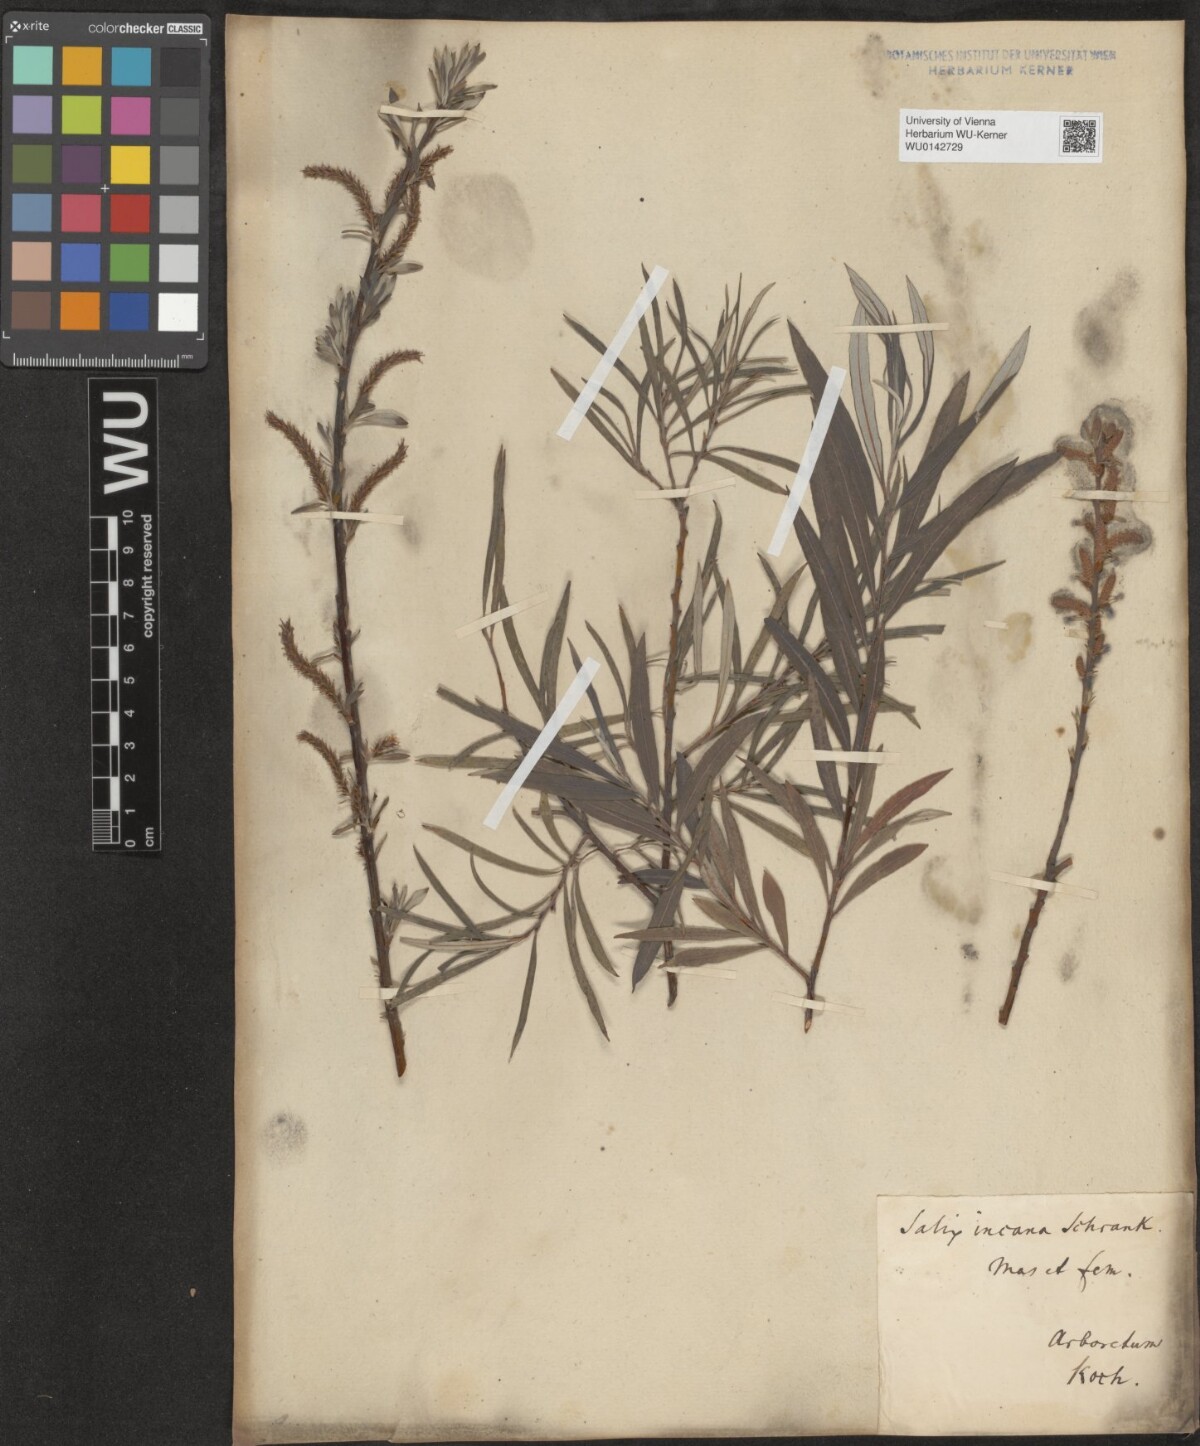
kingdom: Plantae
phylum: Tracheophyta
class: Magnoliopsida
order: Malpighiales
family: Salicaceae
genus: Salix
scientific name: Salix eleagnos
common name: Elaeagnus willow
